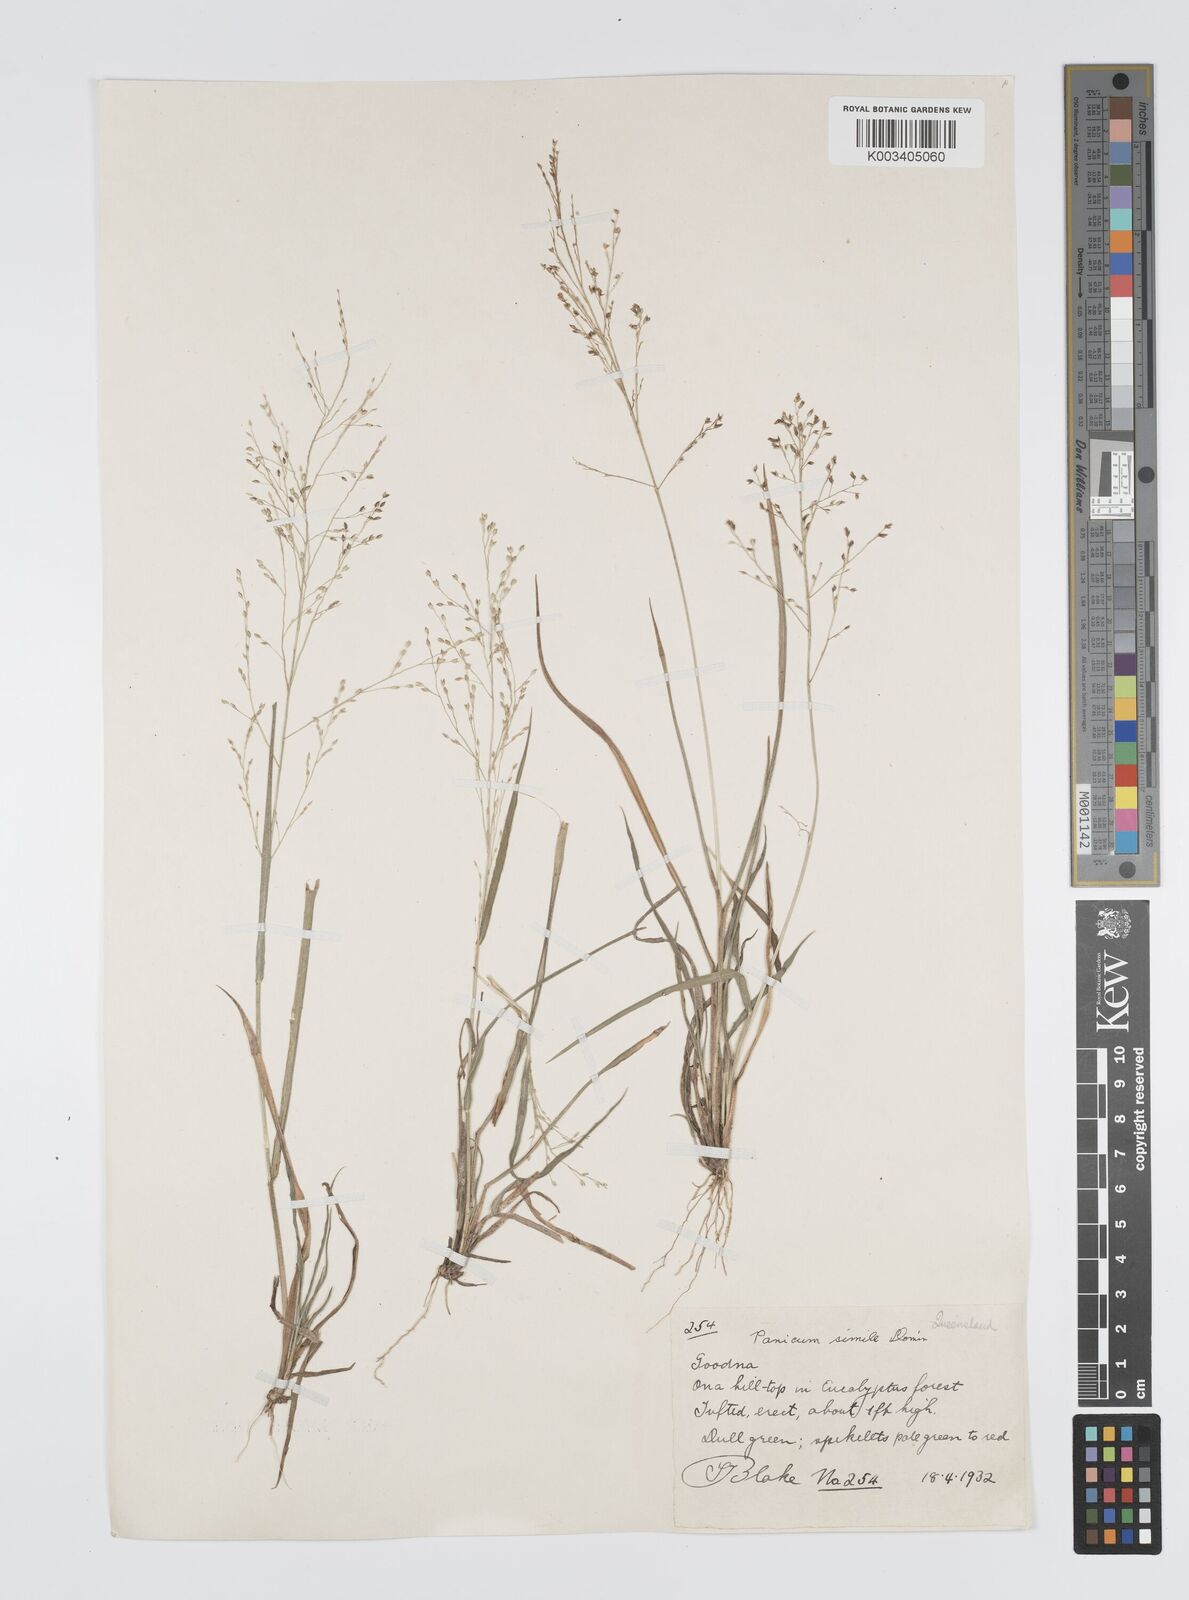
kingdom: Plantae
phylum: Tracheophyta
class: Liliopsida
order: Poales
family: Poaceae
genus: Panicum
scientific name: Panicum simile
